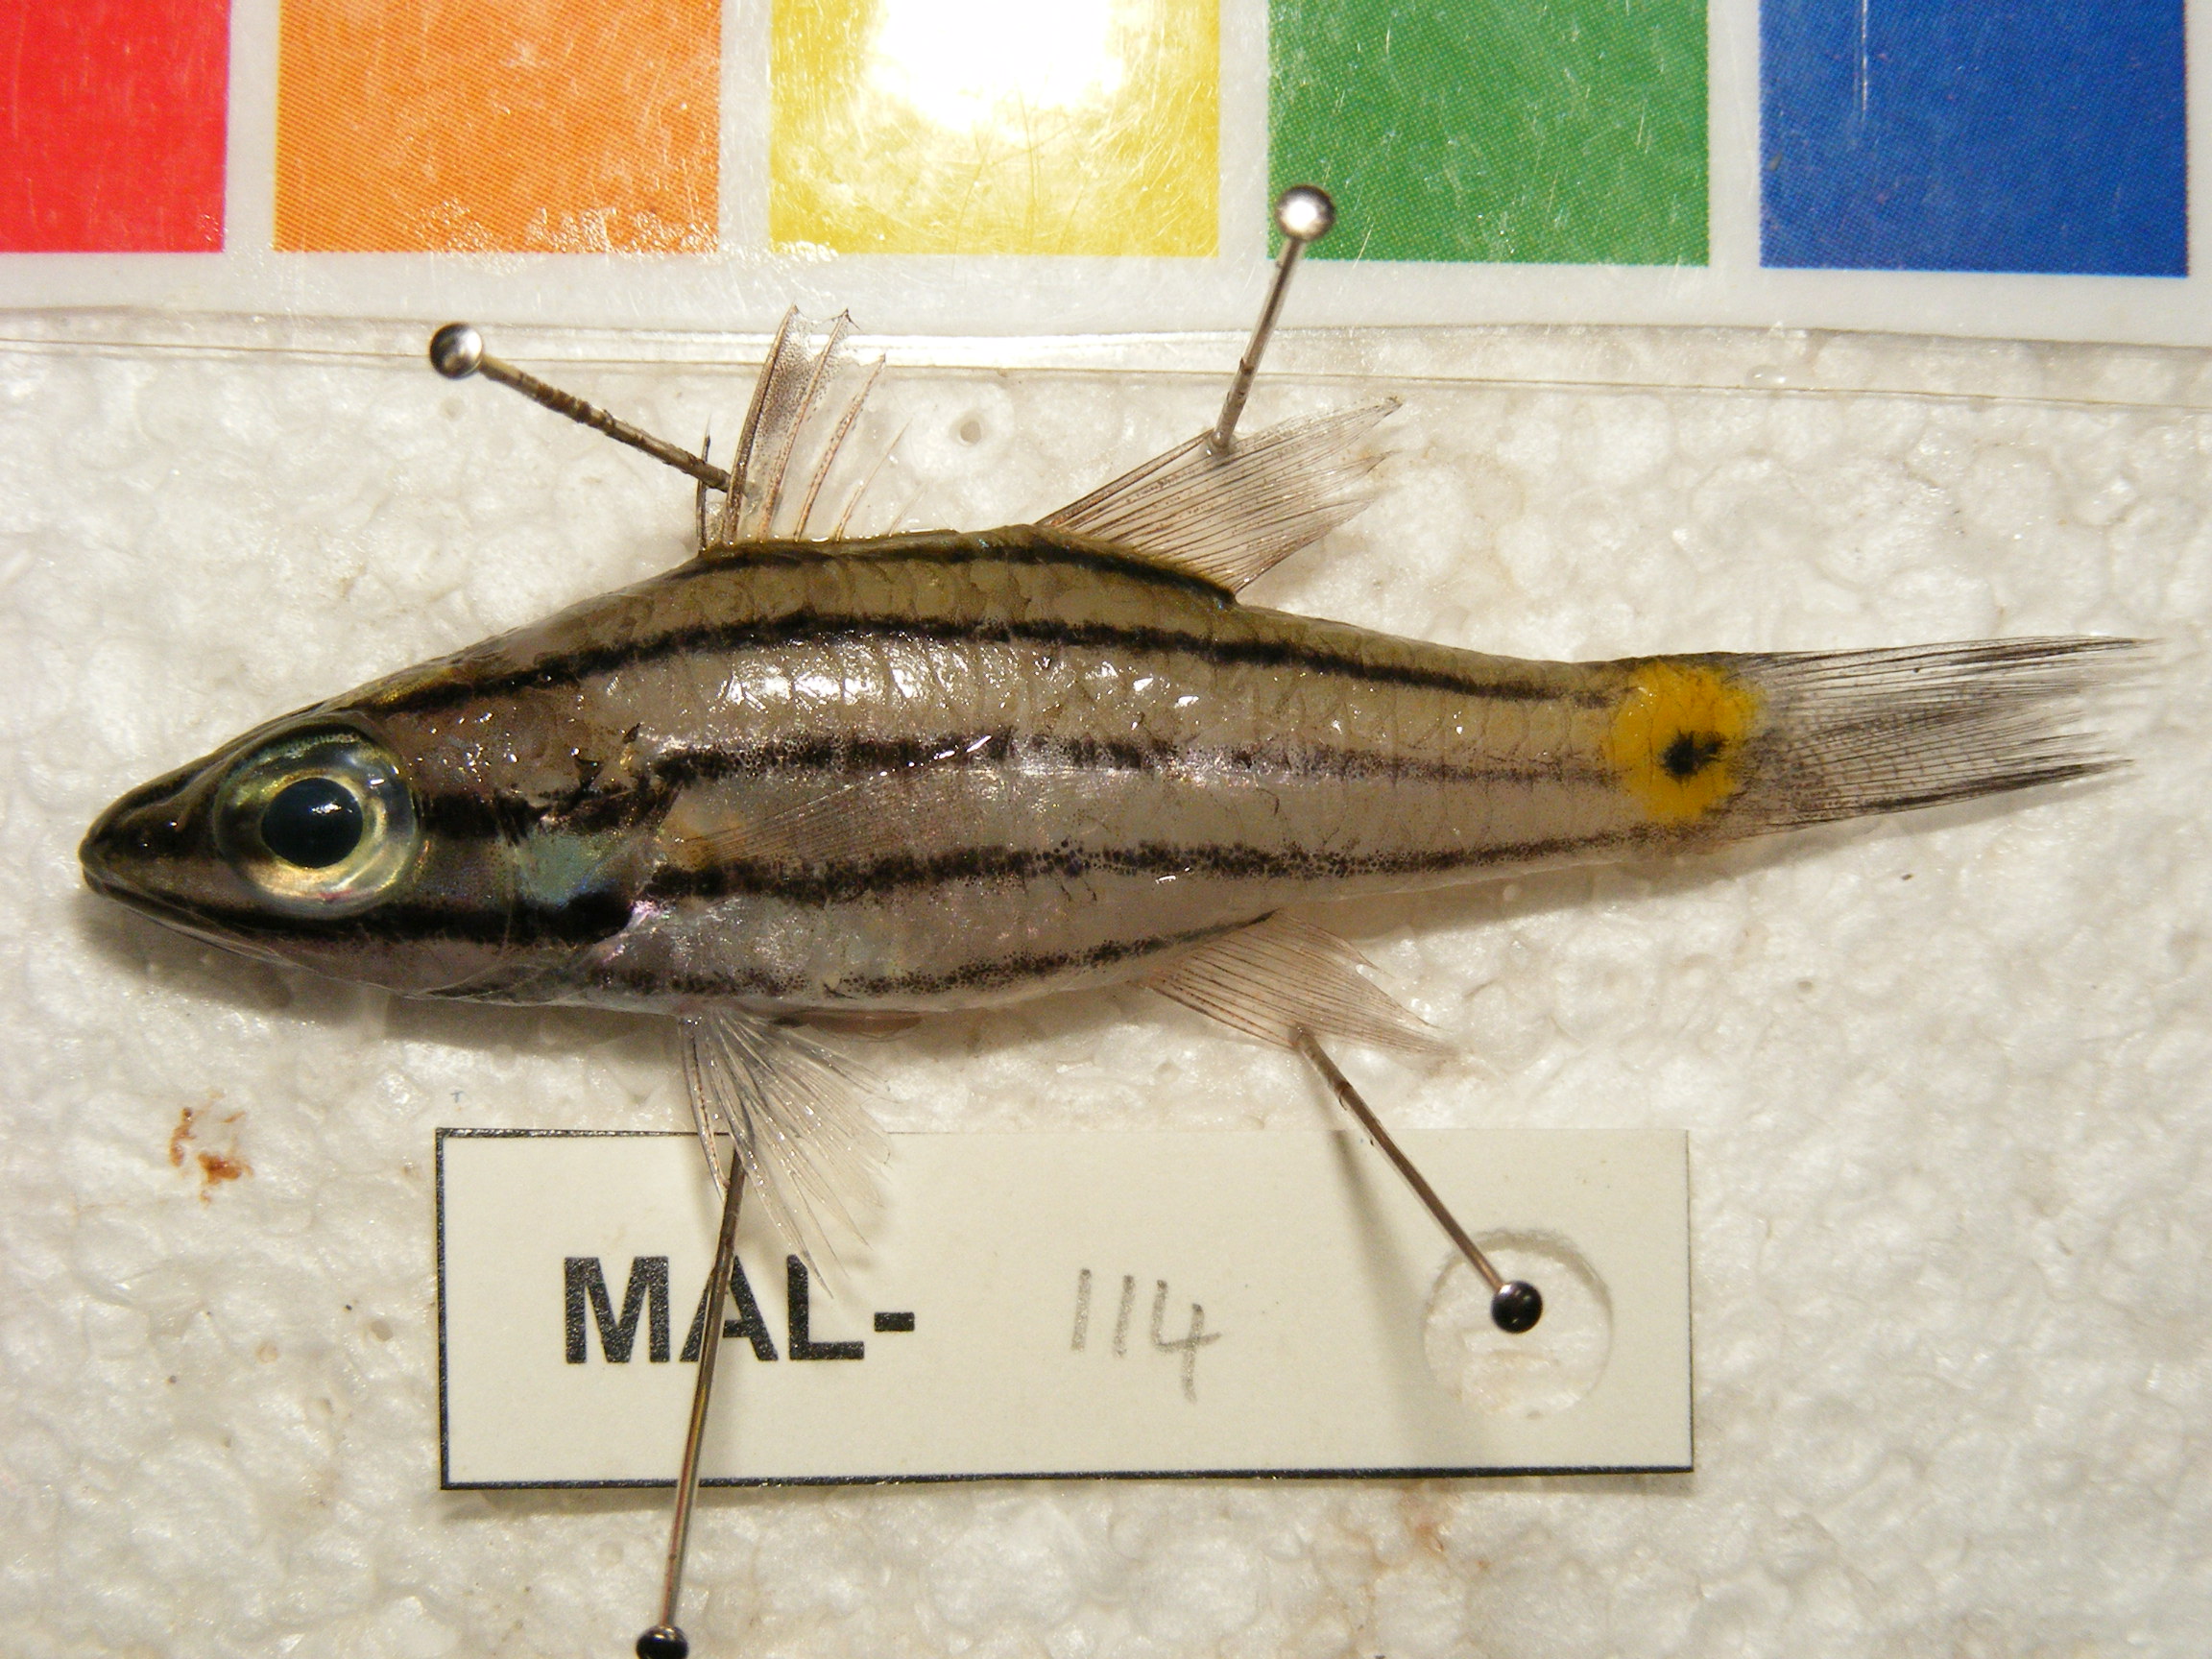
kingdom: Animalia
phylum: Chordata
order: Perciformes
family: Apogonidae
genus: Cheilodipterus
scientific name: Cheilodipterus quinquelineatus
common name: Five-lined cardinalfish
